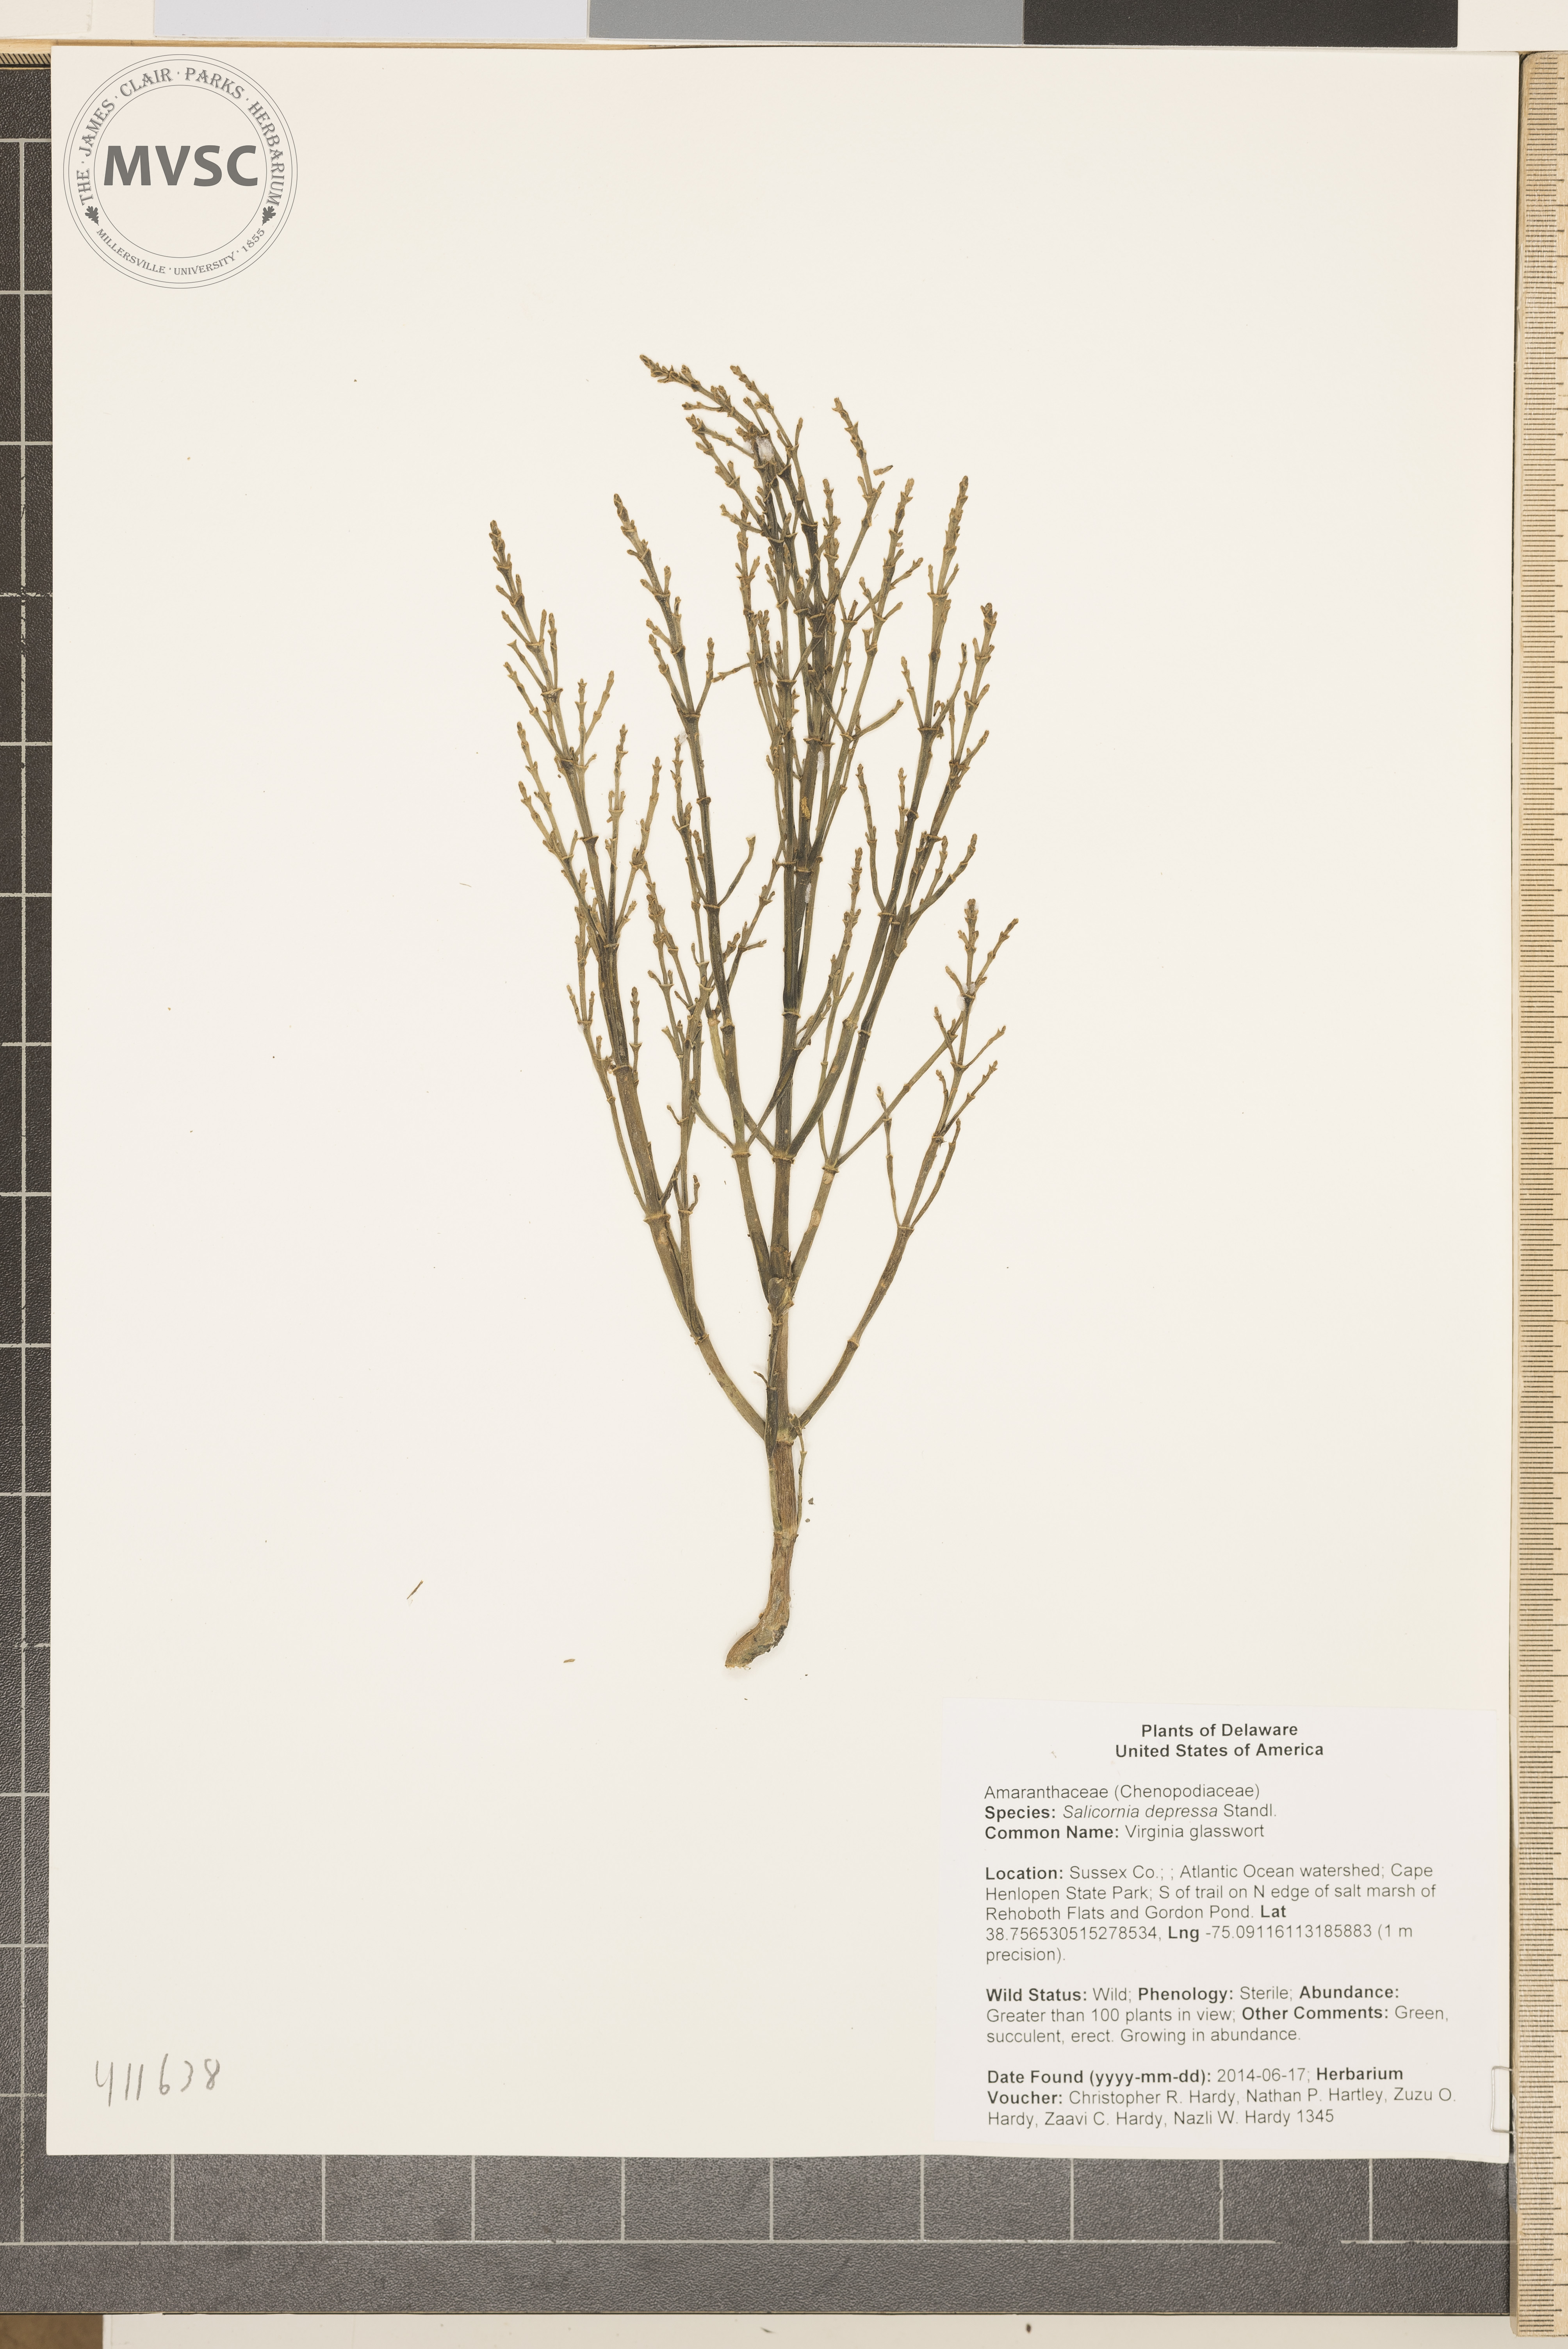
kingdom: Plantae
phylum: Tracheophyta
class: Magnoliopsida
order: Caryophyllales
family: Amaranthaceae
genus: Salicornia
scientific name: Salicornia virginica
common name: Virginia glasswort
